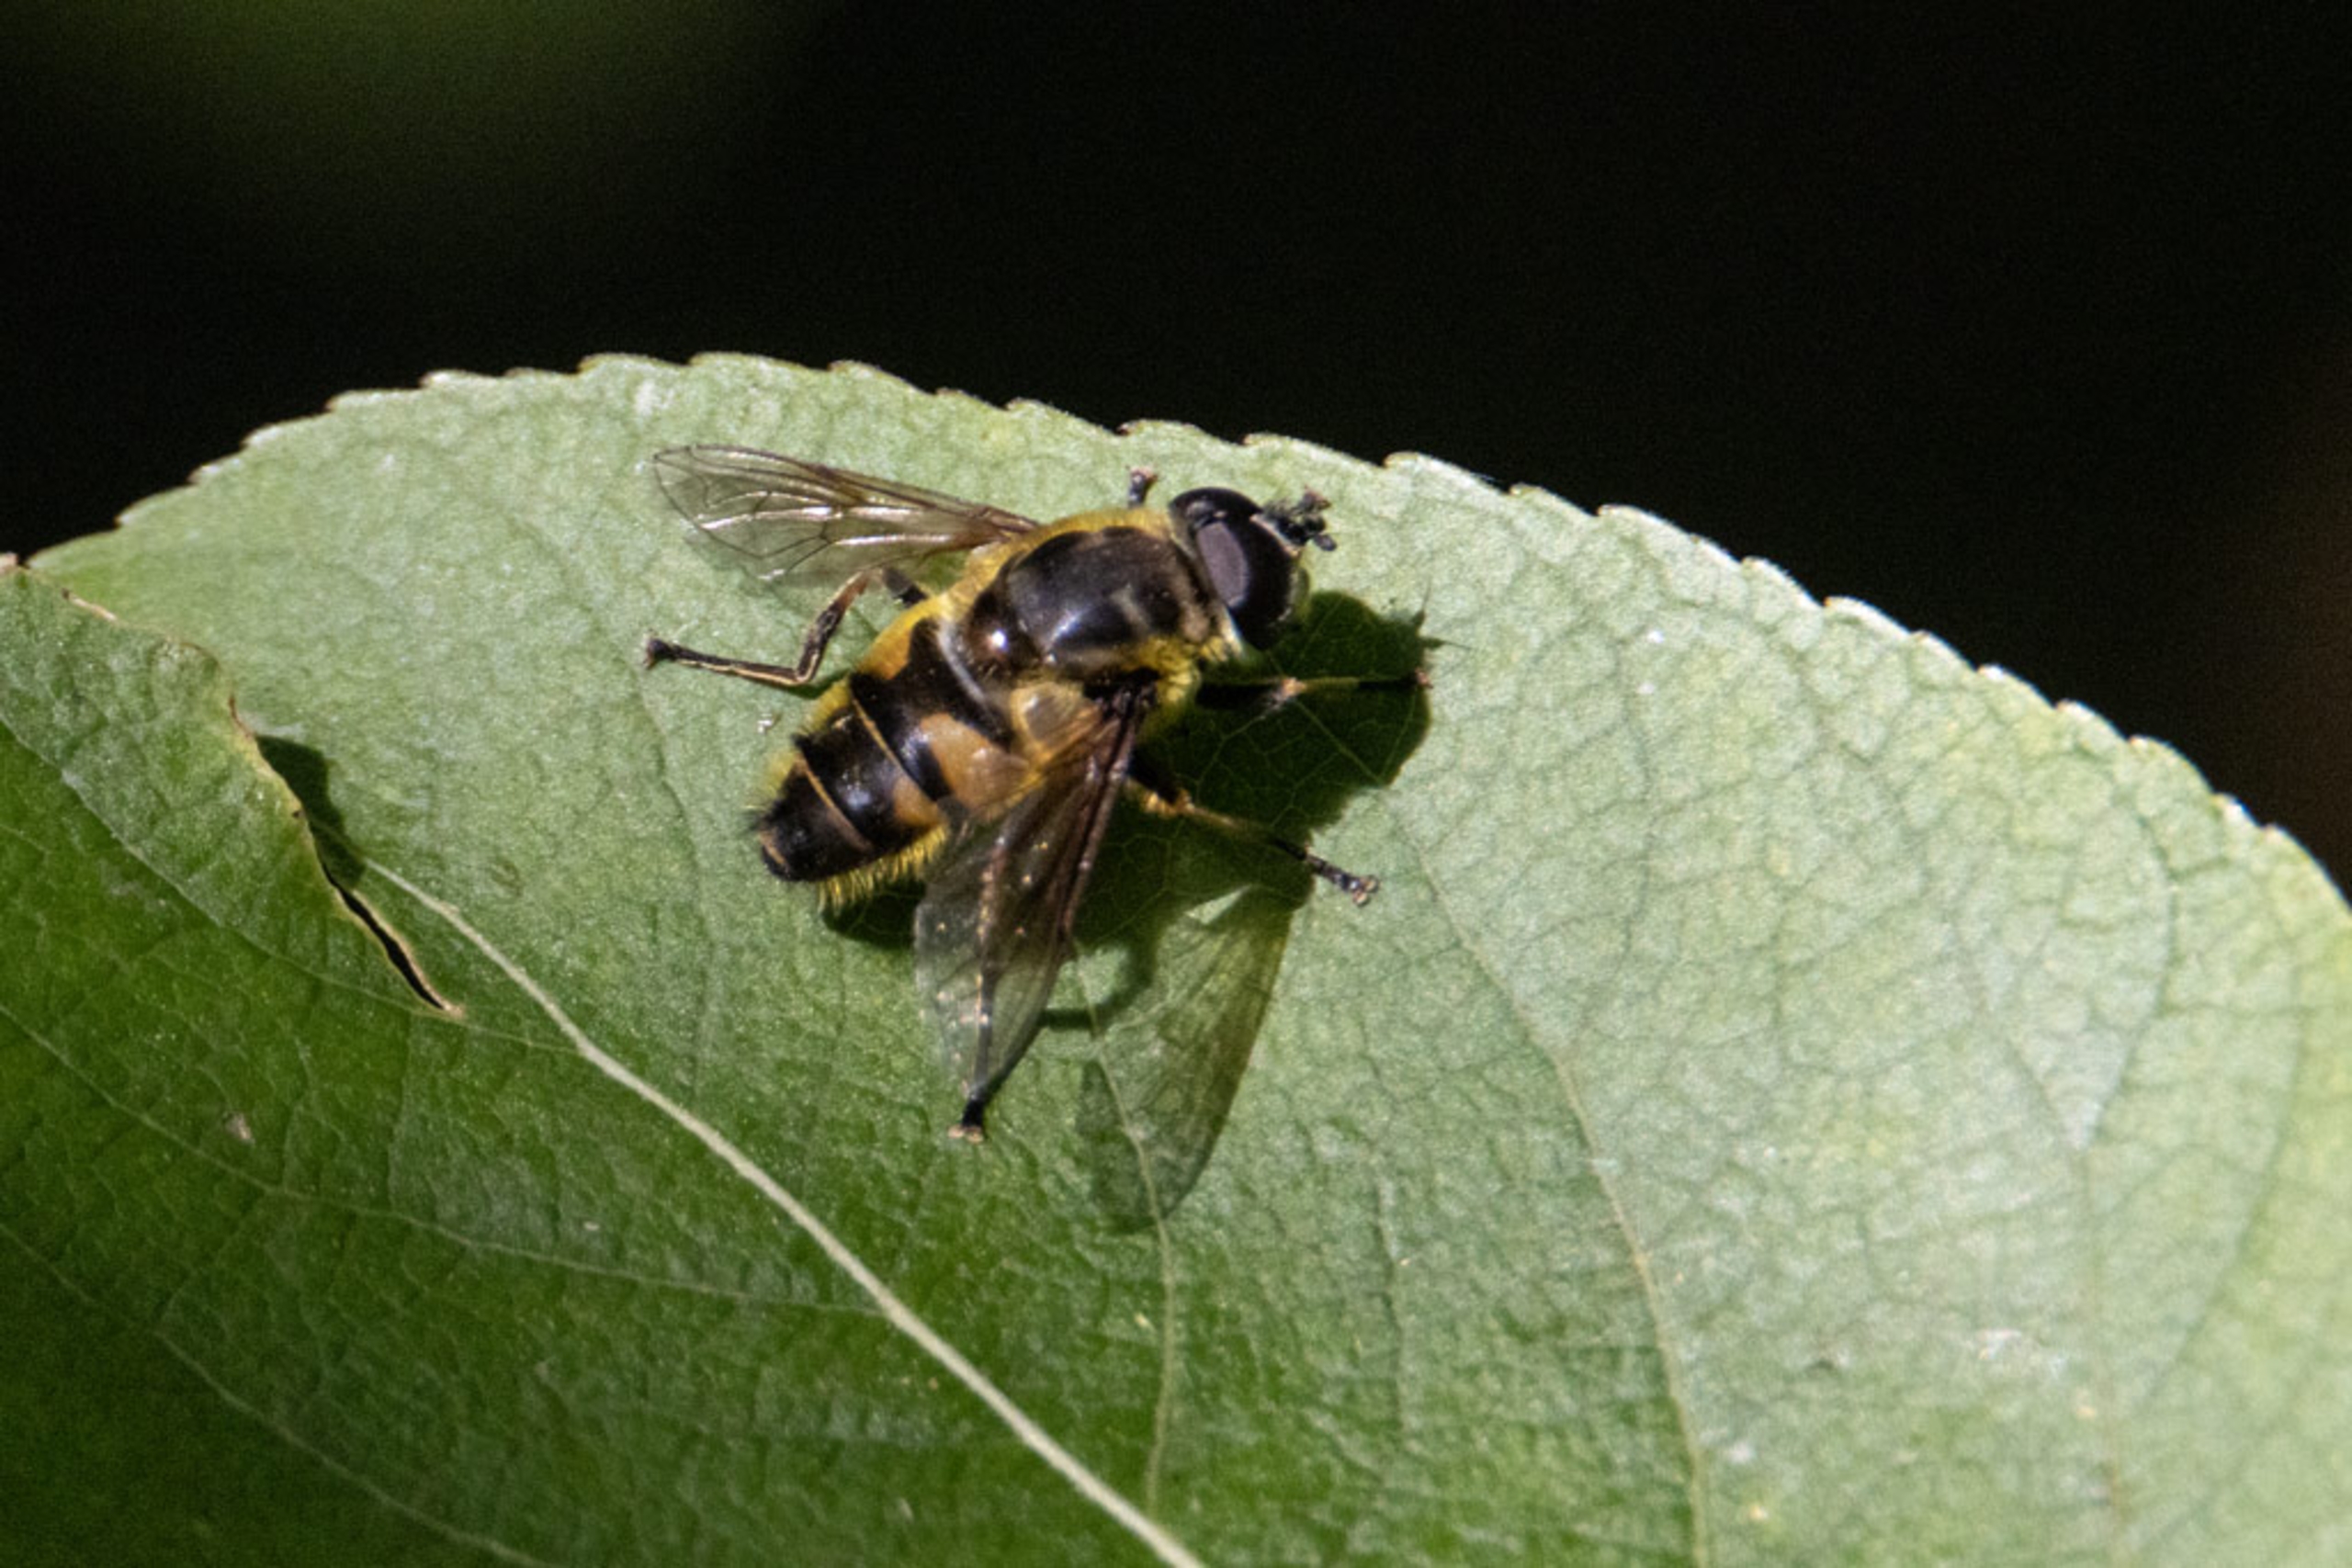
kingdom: Animalia
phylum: Arthropoda
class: Insecta
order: Diptera
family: Syrphidae
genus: Myathropa
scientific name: Myathropa florea
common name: Dødningehoved-svirreflue
